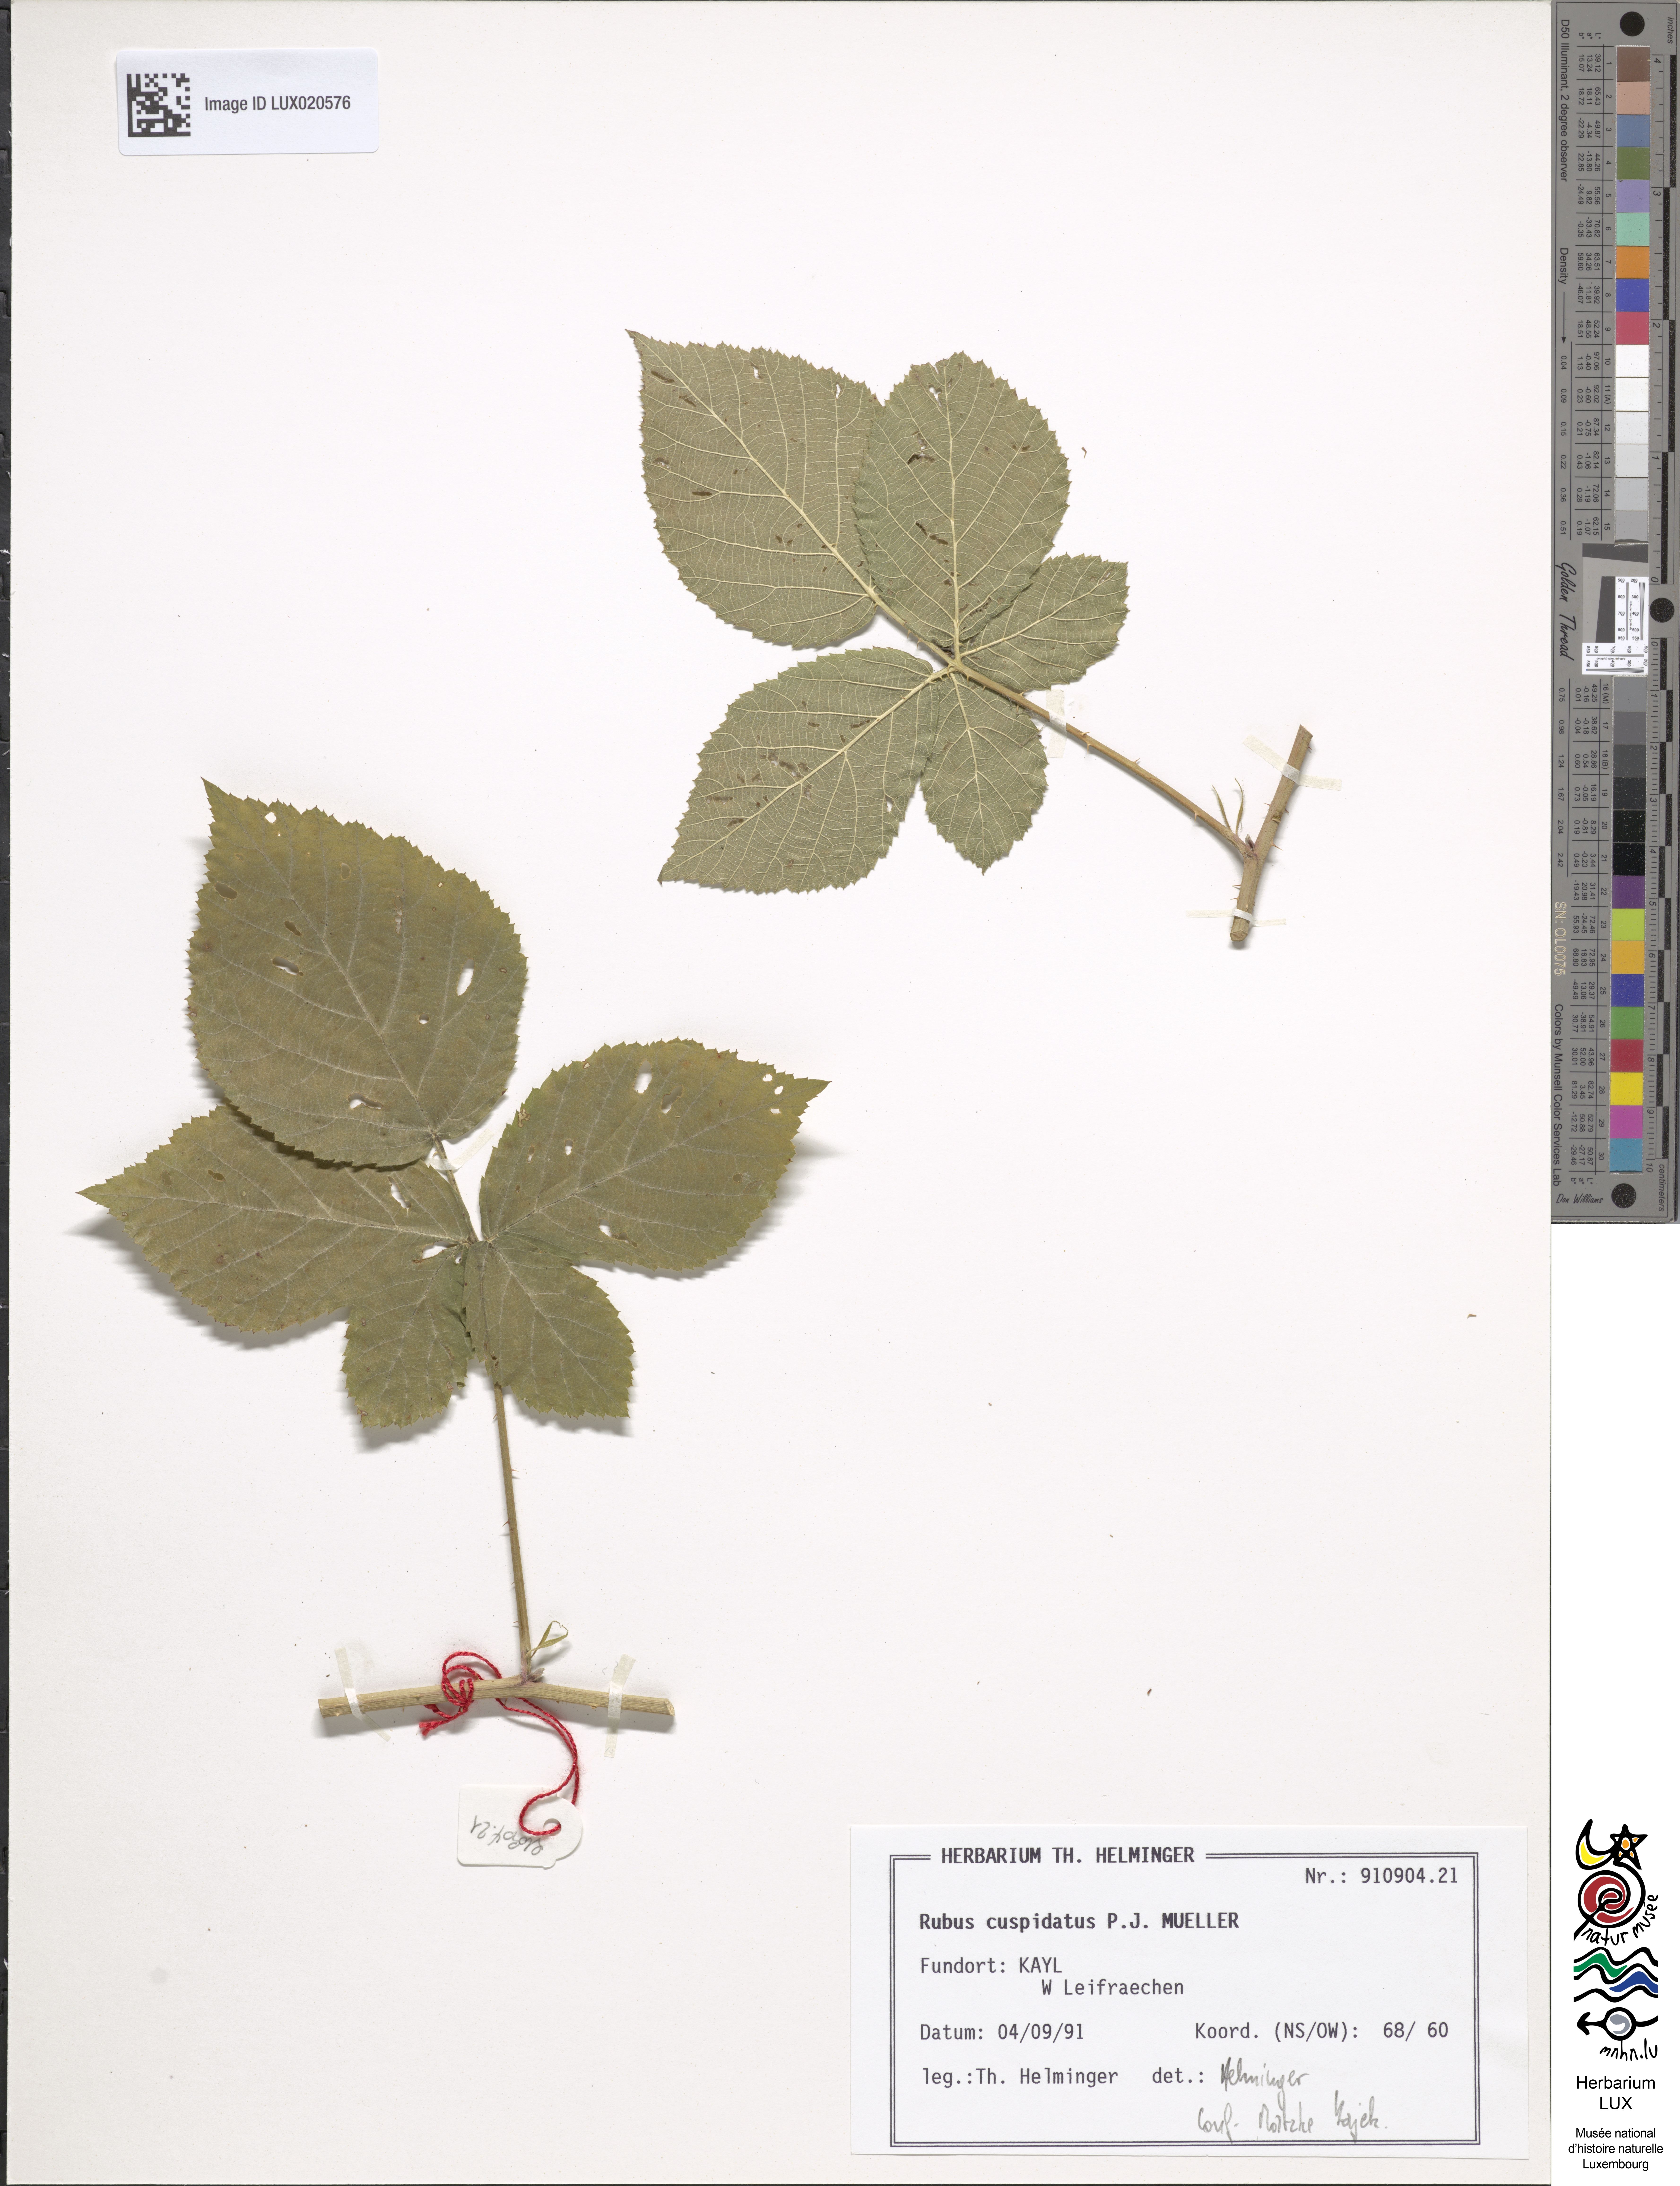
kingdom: Plantae
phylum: Tracheophyta
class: Magnoliopsida
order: Rosales
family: Rosaceae
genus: Rubus
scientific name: Rubus cuspidatus
